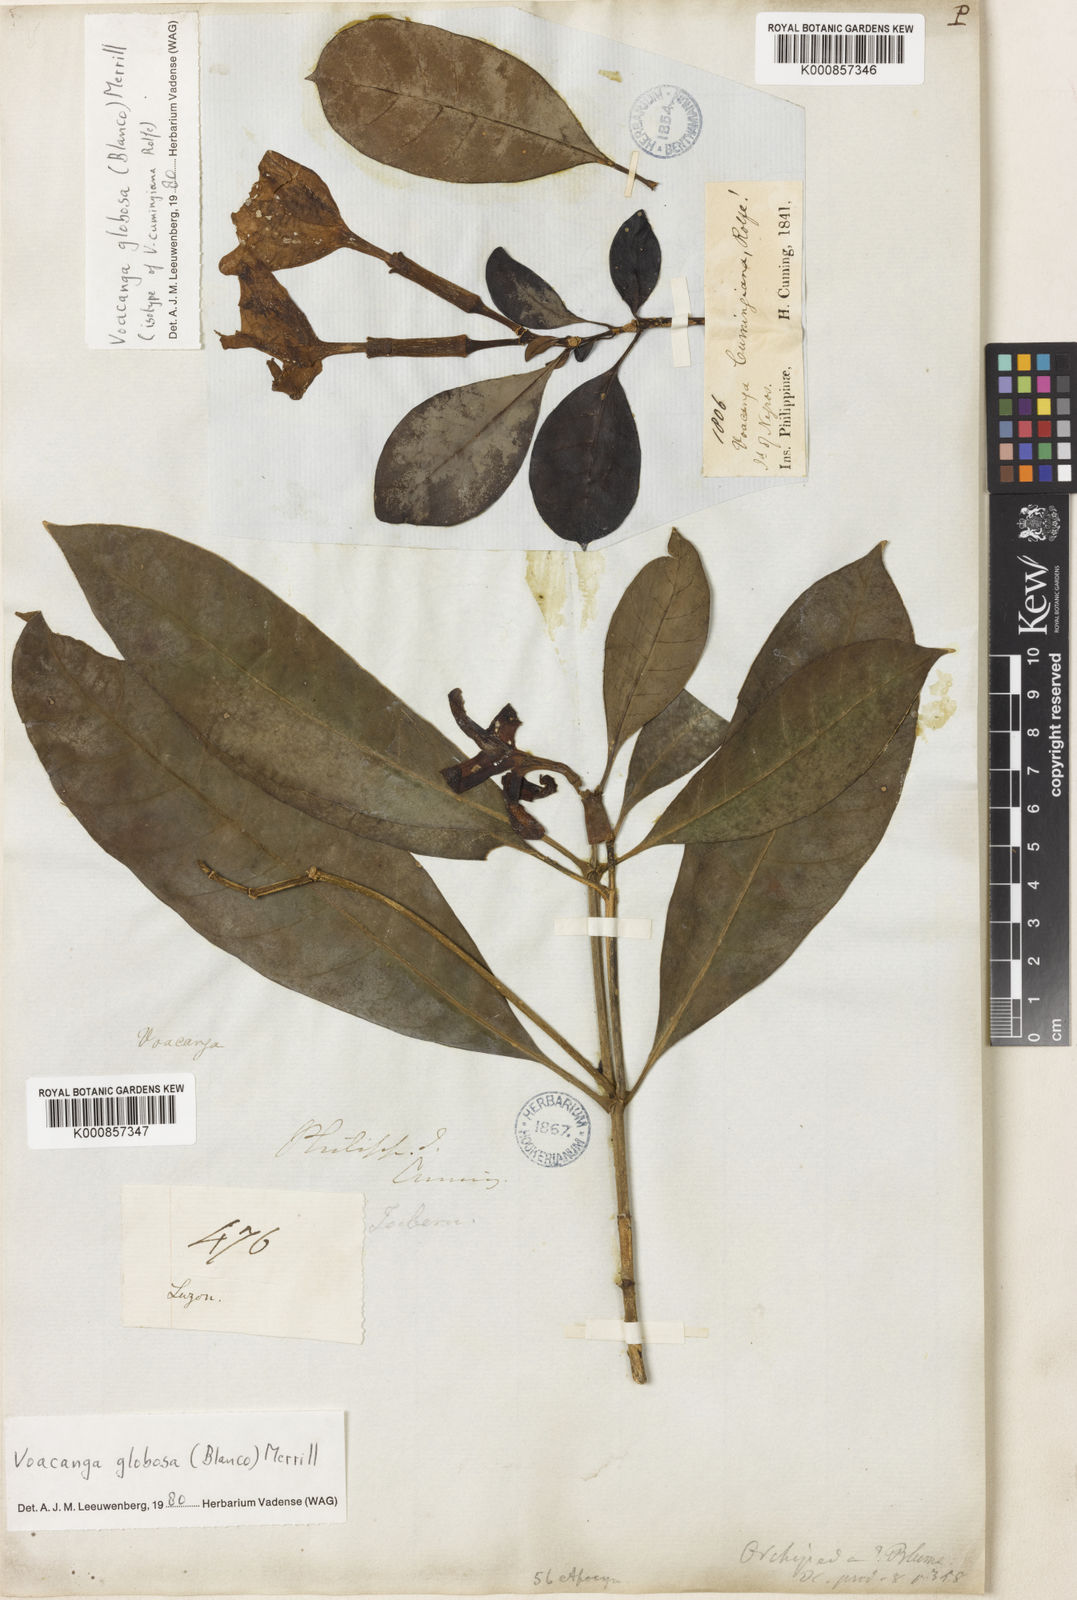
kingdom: Plantae
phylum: Tracheophyta
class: Magnoliopsida
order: Gentianales
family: Apocynaceae
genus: Voacanga
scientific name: Voacanga globosa
